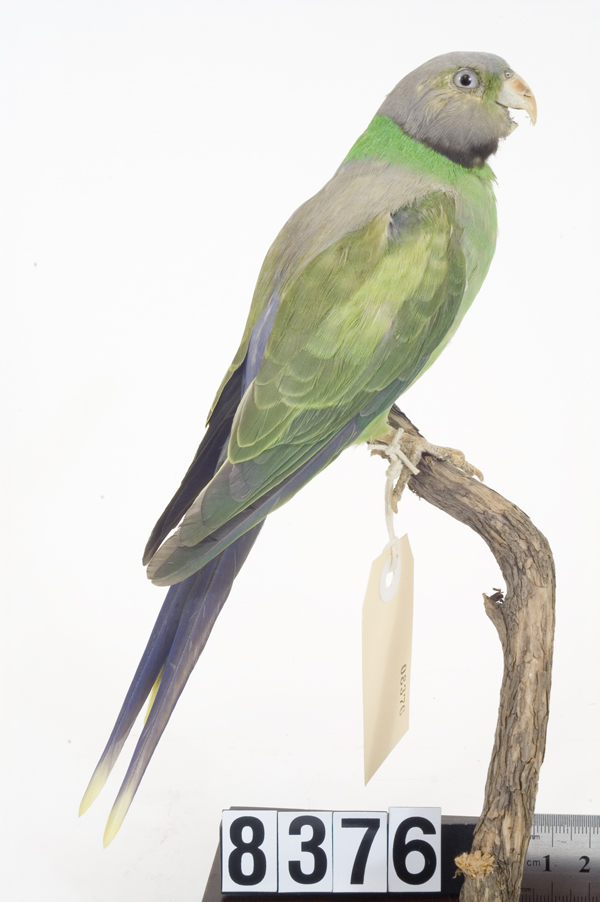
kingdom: Animalia
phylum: Chordata
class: Aves
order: Psittaciformes
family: Psittacidae
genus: Psittacula
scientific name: Psittacula calthropae
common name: Layard's parakeet
